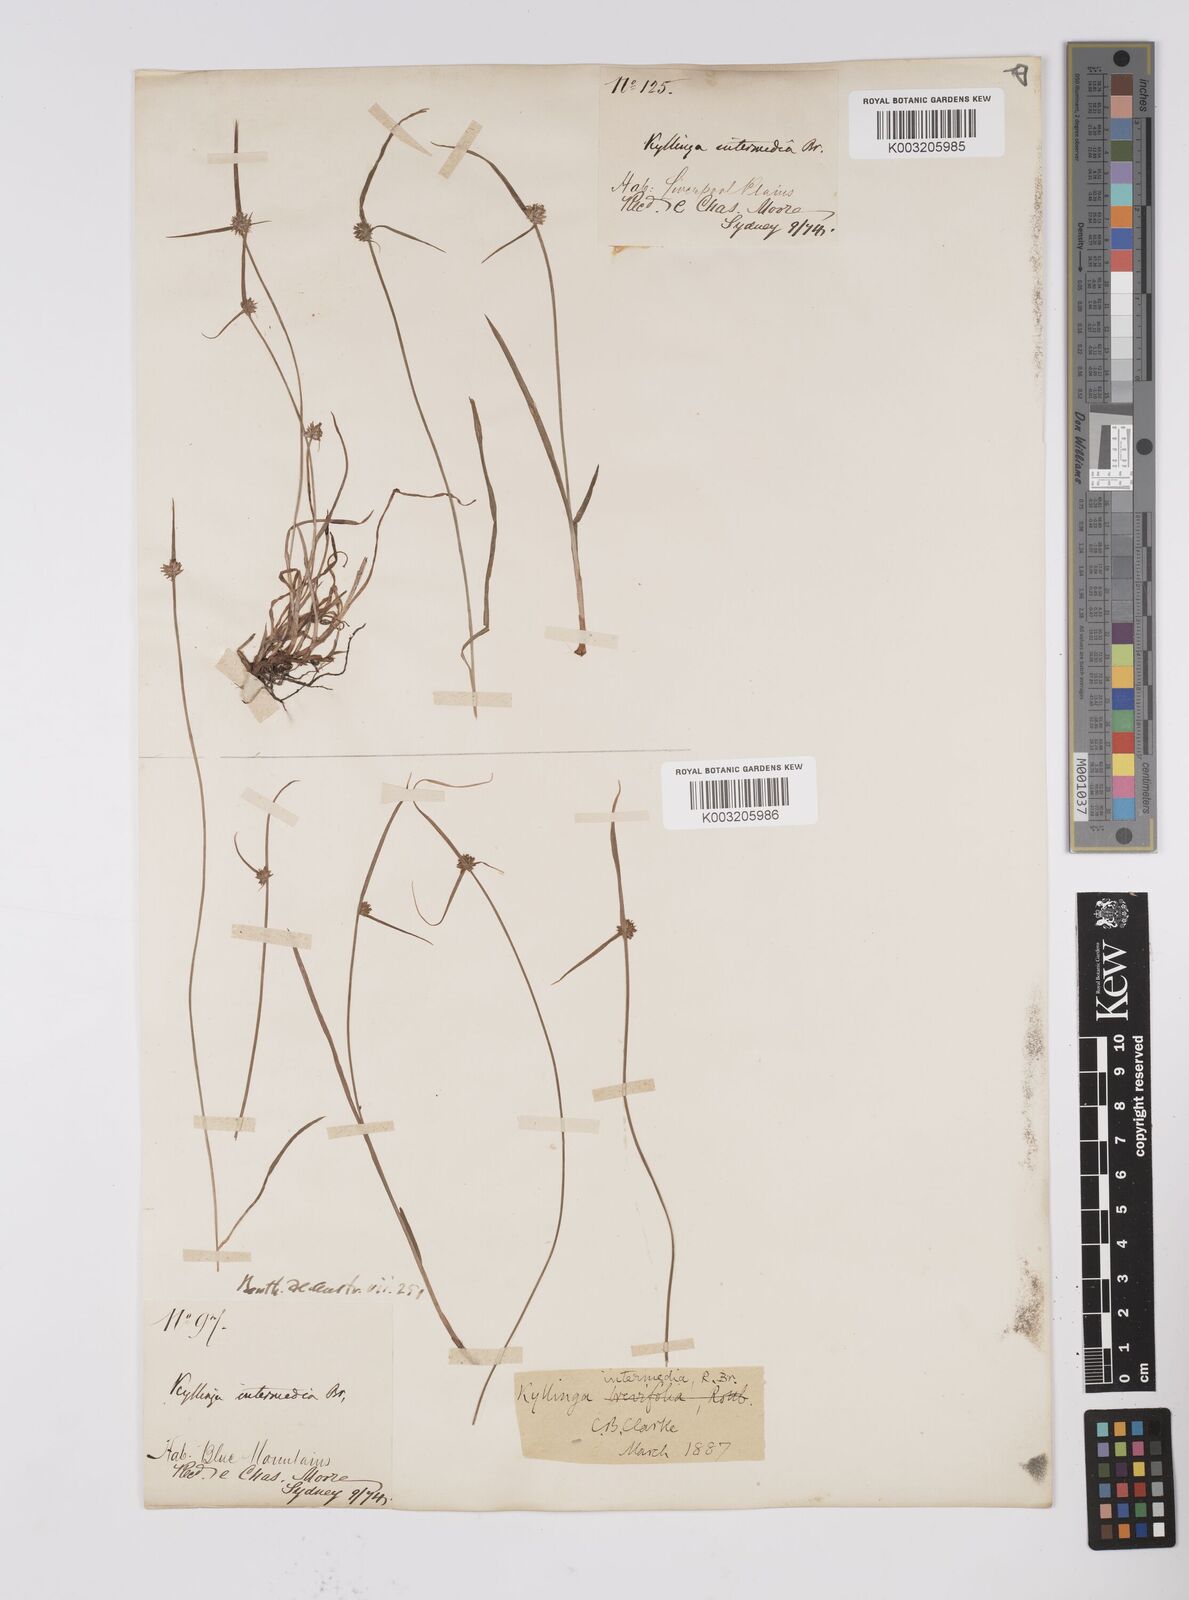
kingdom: Plantae
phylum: Tracheophyta
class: Liliopsida
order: Poales
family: Cyperaceae
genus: Cyperus
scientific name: Cyperus brevifolius
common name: Globe kyllinga
